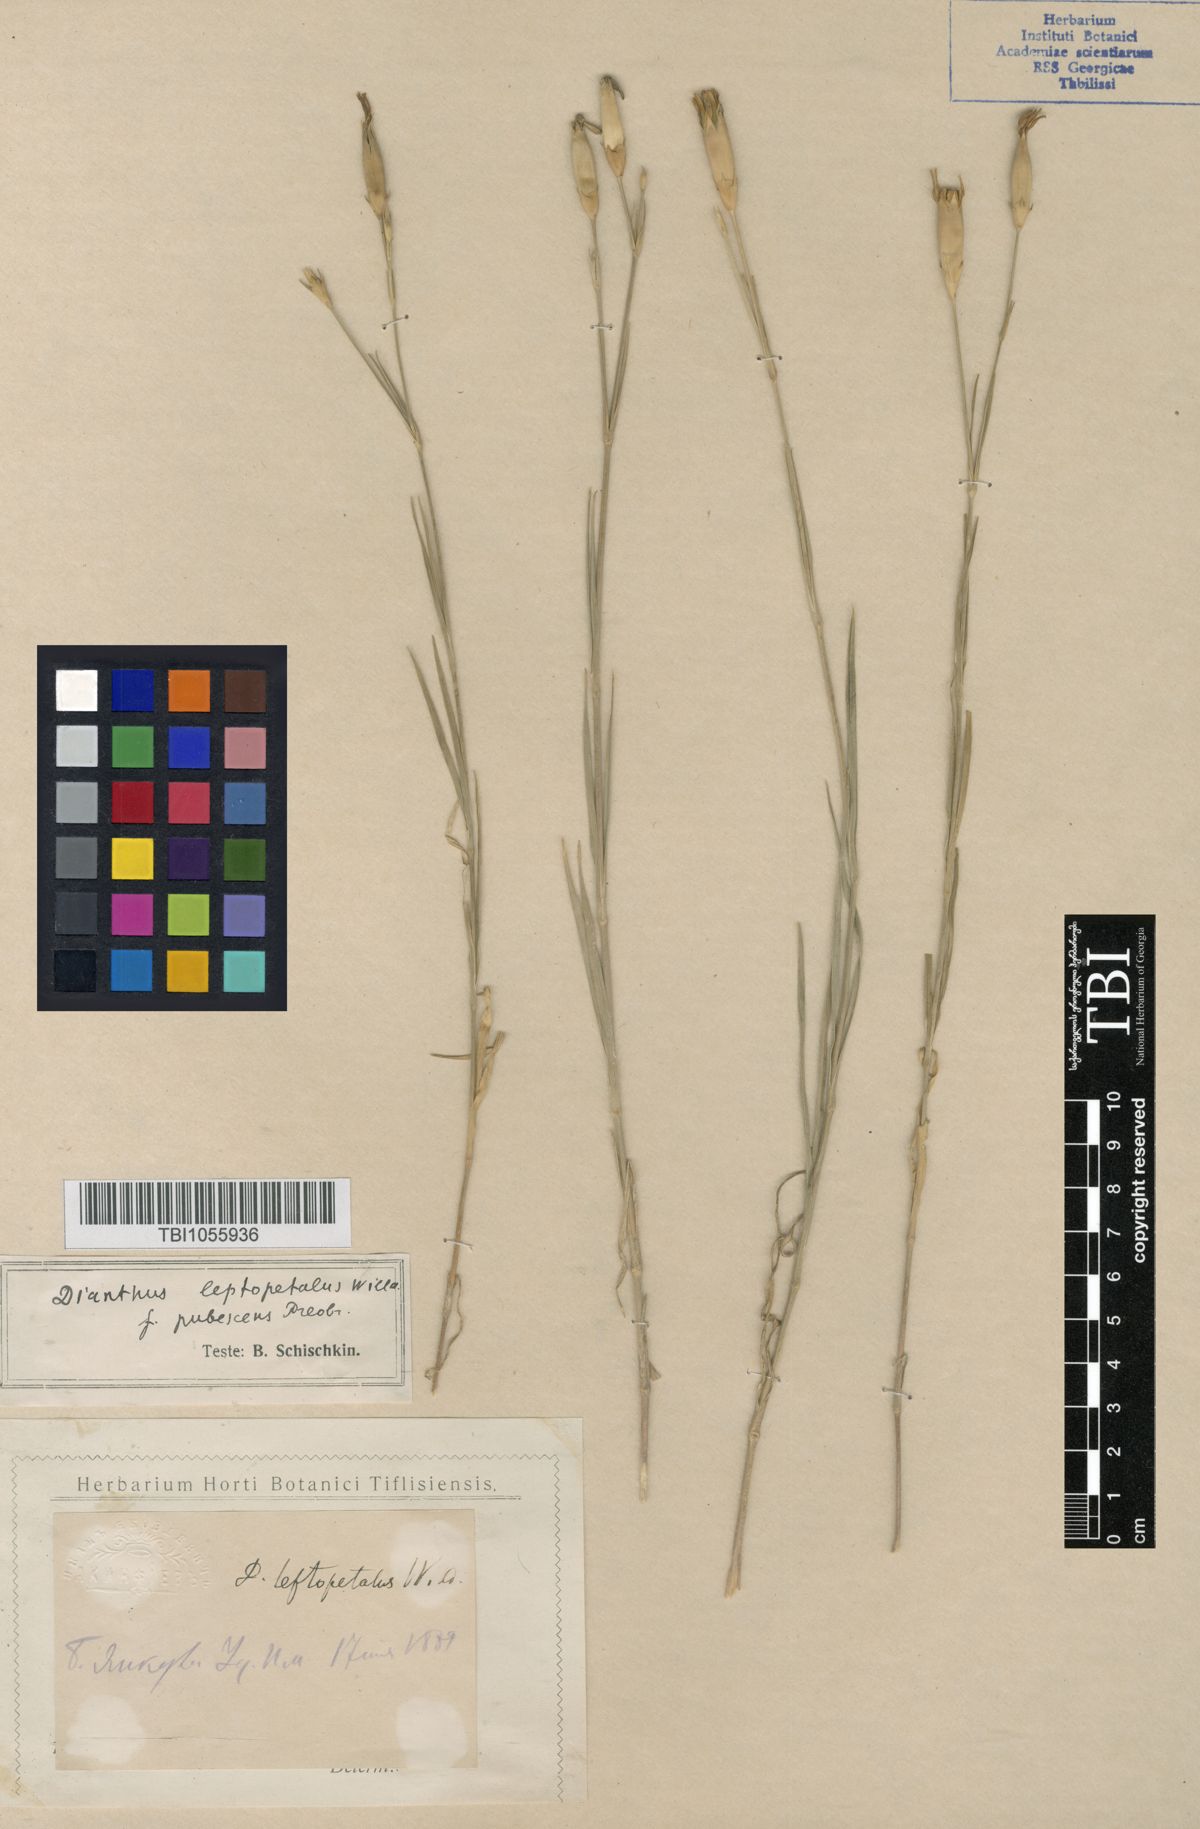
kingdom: Plantae
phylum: Tracheophyta
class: Magnoliopsida
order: Caryophyllales
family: Caryophyllaceae
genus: Dianthus
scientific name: Dianthus leptopetalus
